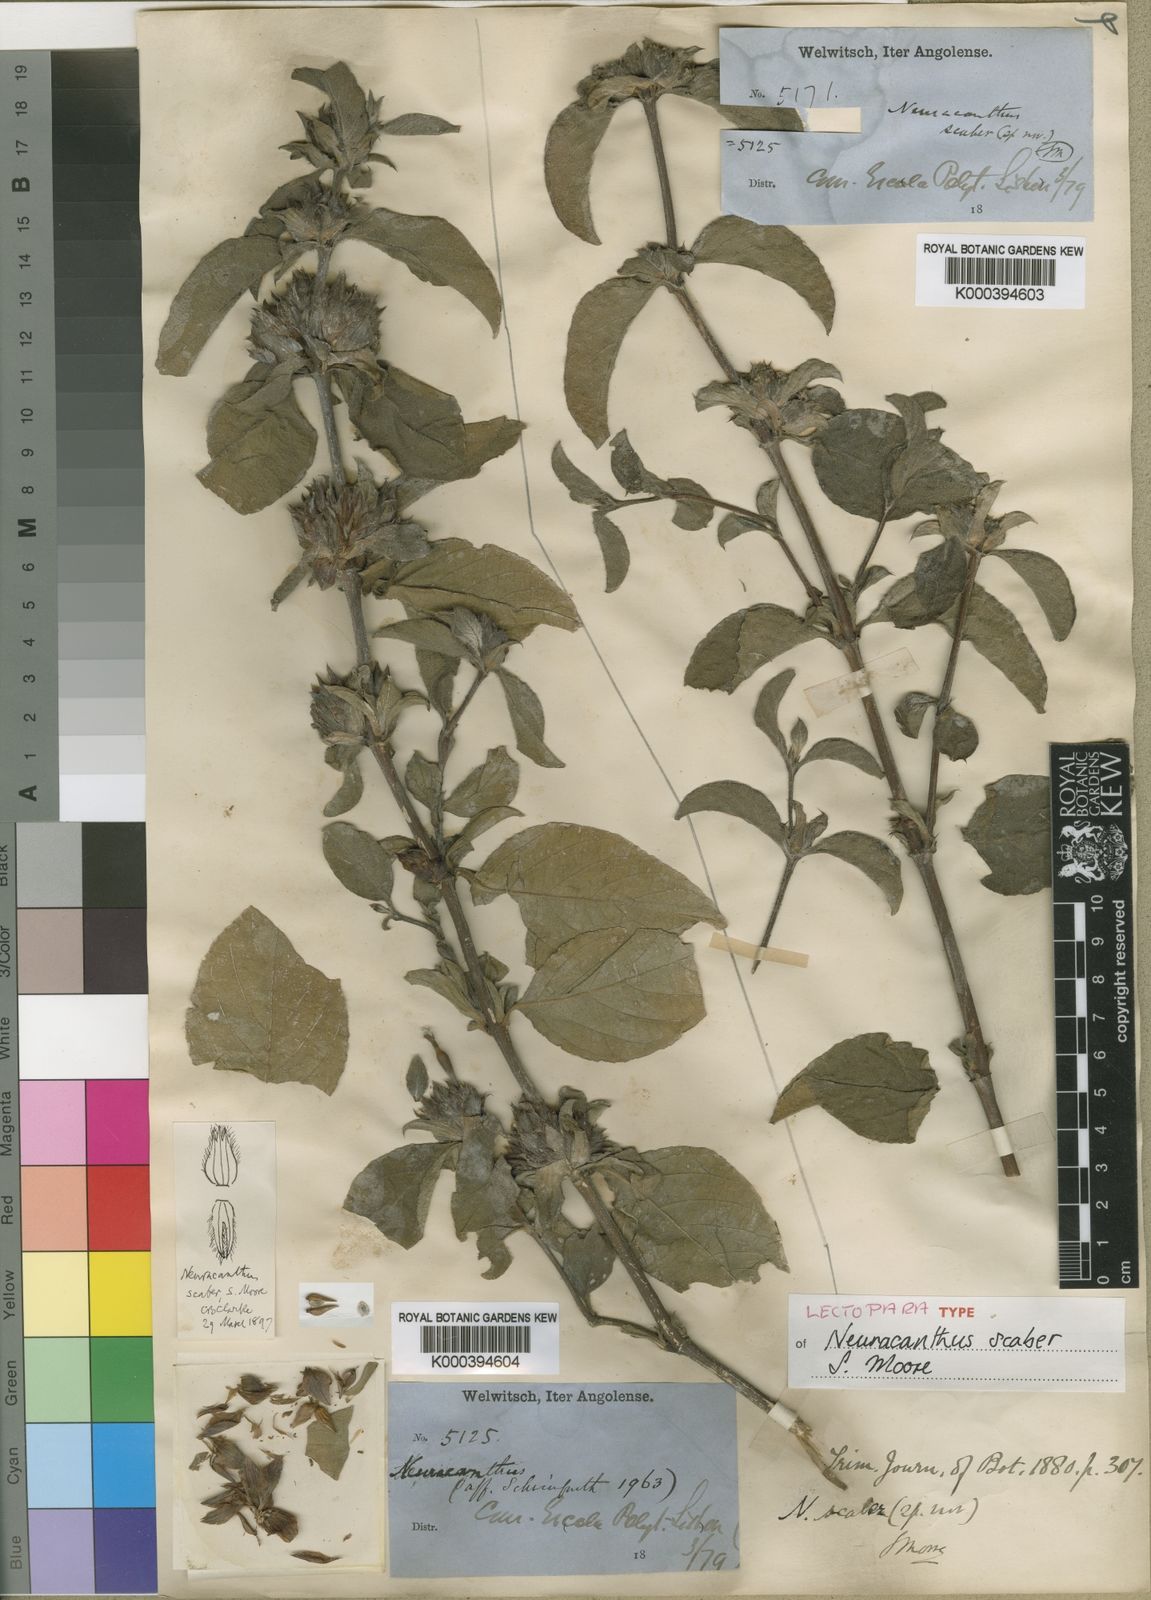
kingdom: Plantae
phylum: Tracheophyta
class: Magnoliopsida
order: Lamiales
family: Acanthaceae
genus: Neuracanthus
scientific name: Neuracanthus scaber
